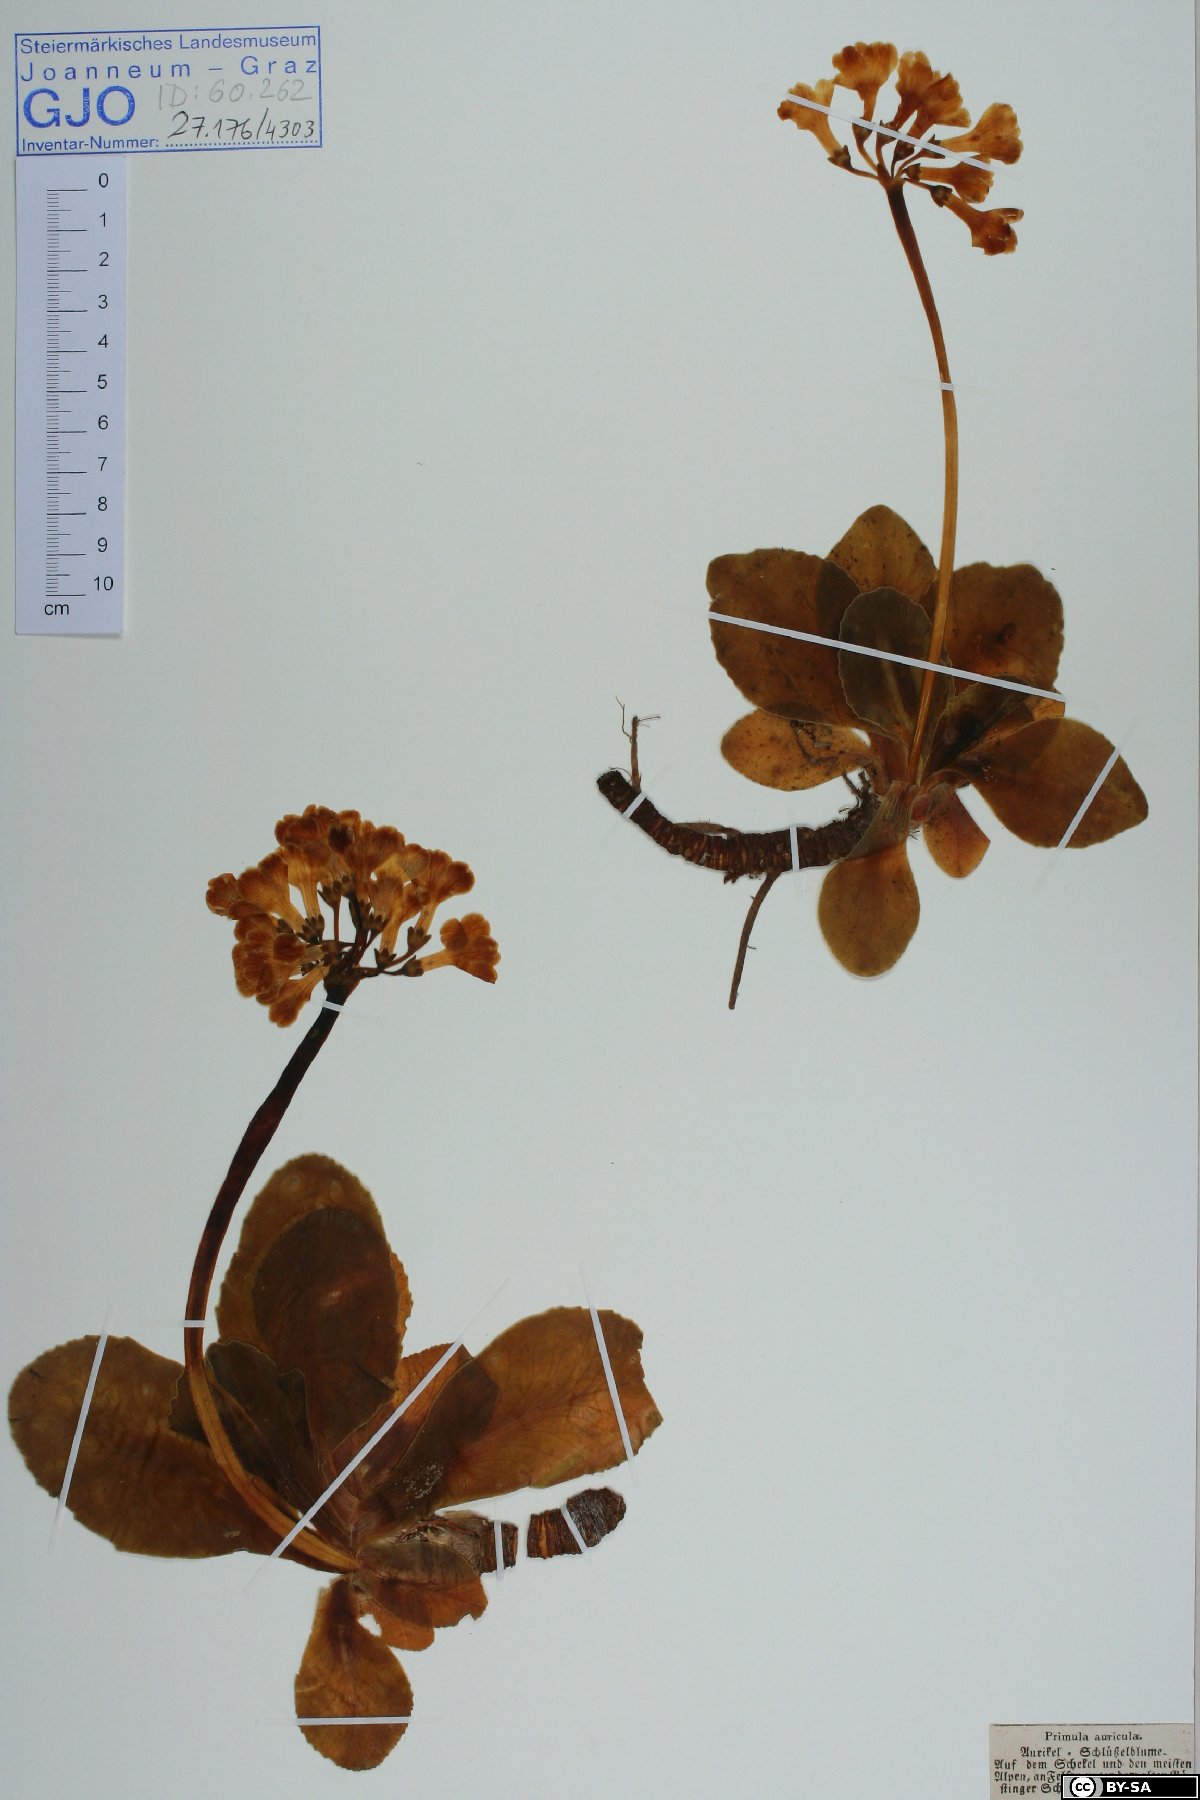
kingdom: Plantae
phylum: Tracheophyta
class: Magnoliopsida
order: Ericales
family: Primulaceae
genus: Primula
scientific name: Primula auricula
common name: Auricula
